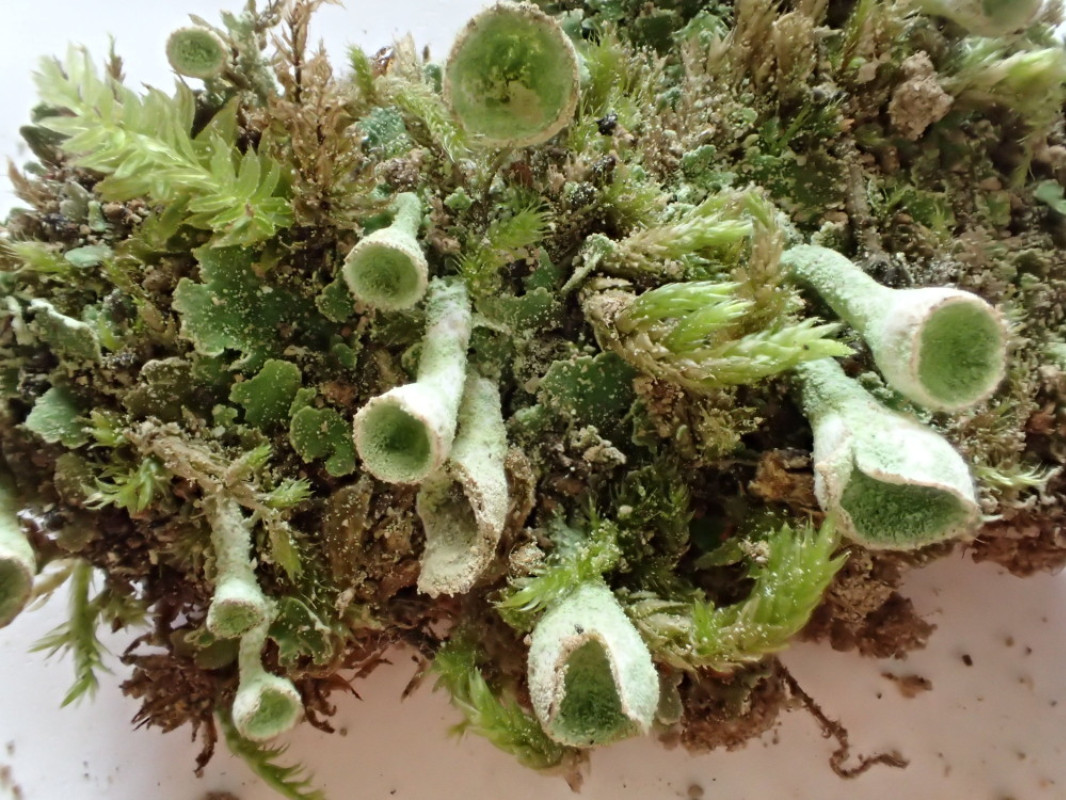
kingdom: Fungi
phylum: Ascomycota
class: Lecanoromycetes
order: Lecanorales
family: Cladoniaceae
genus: Cladonia
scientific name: Cladonia fimbriata
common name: bleggrøn bægerlav
